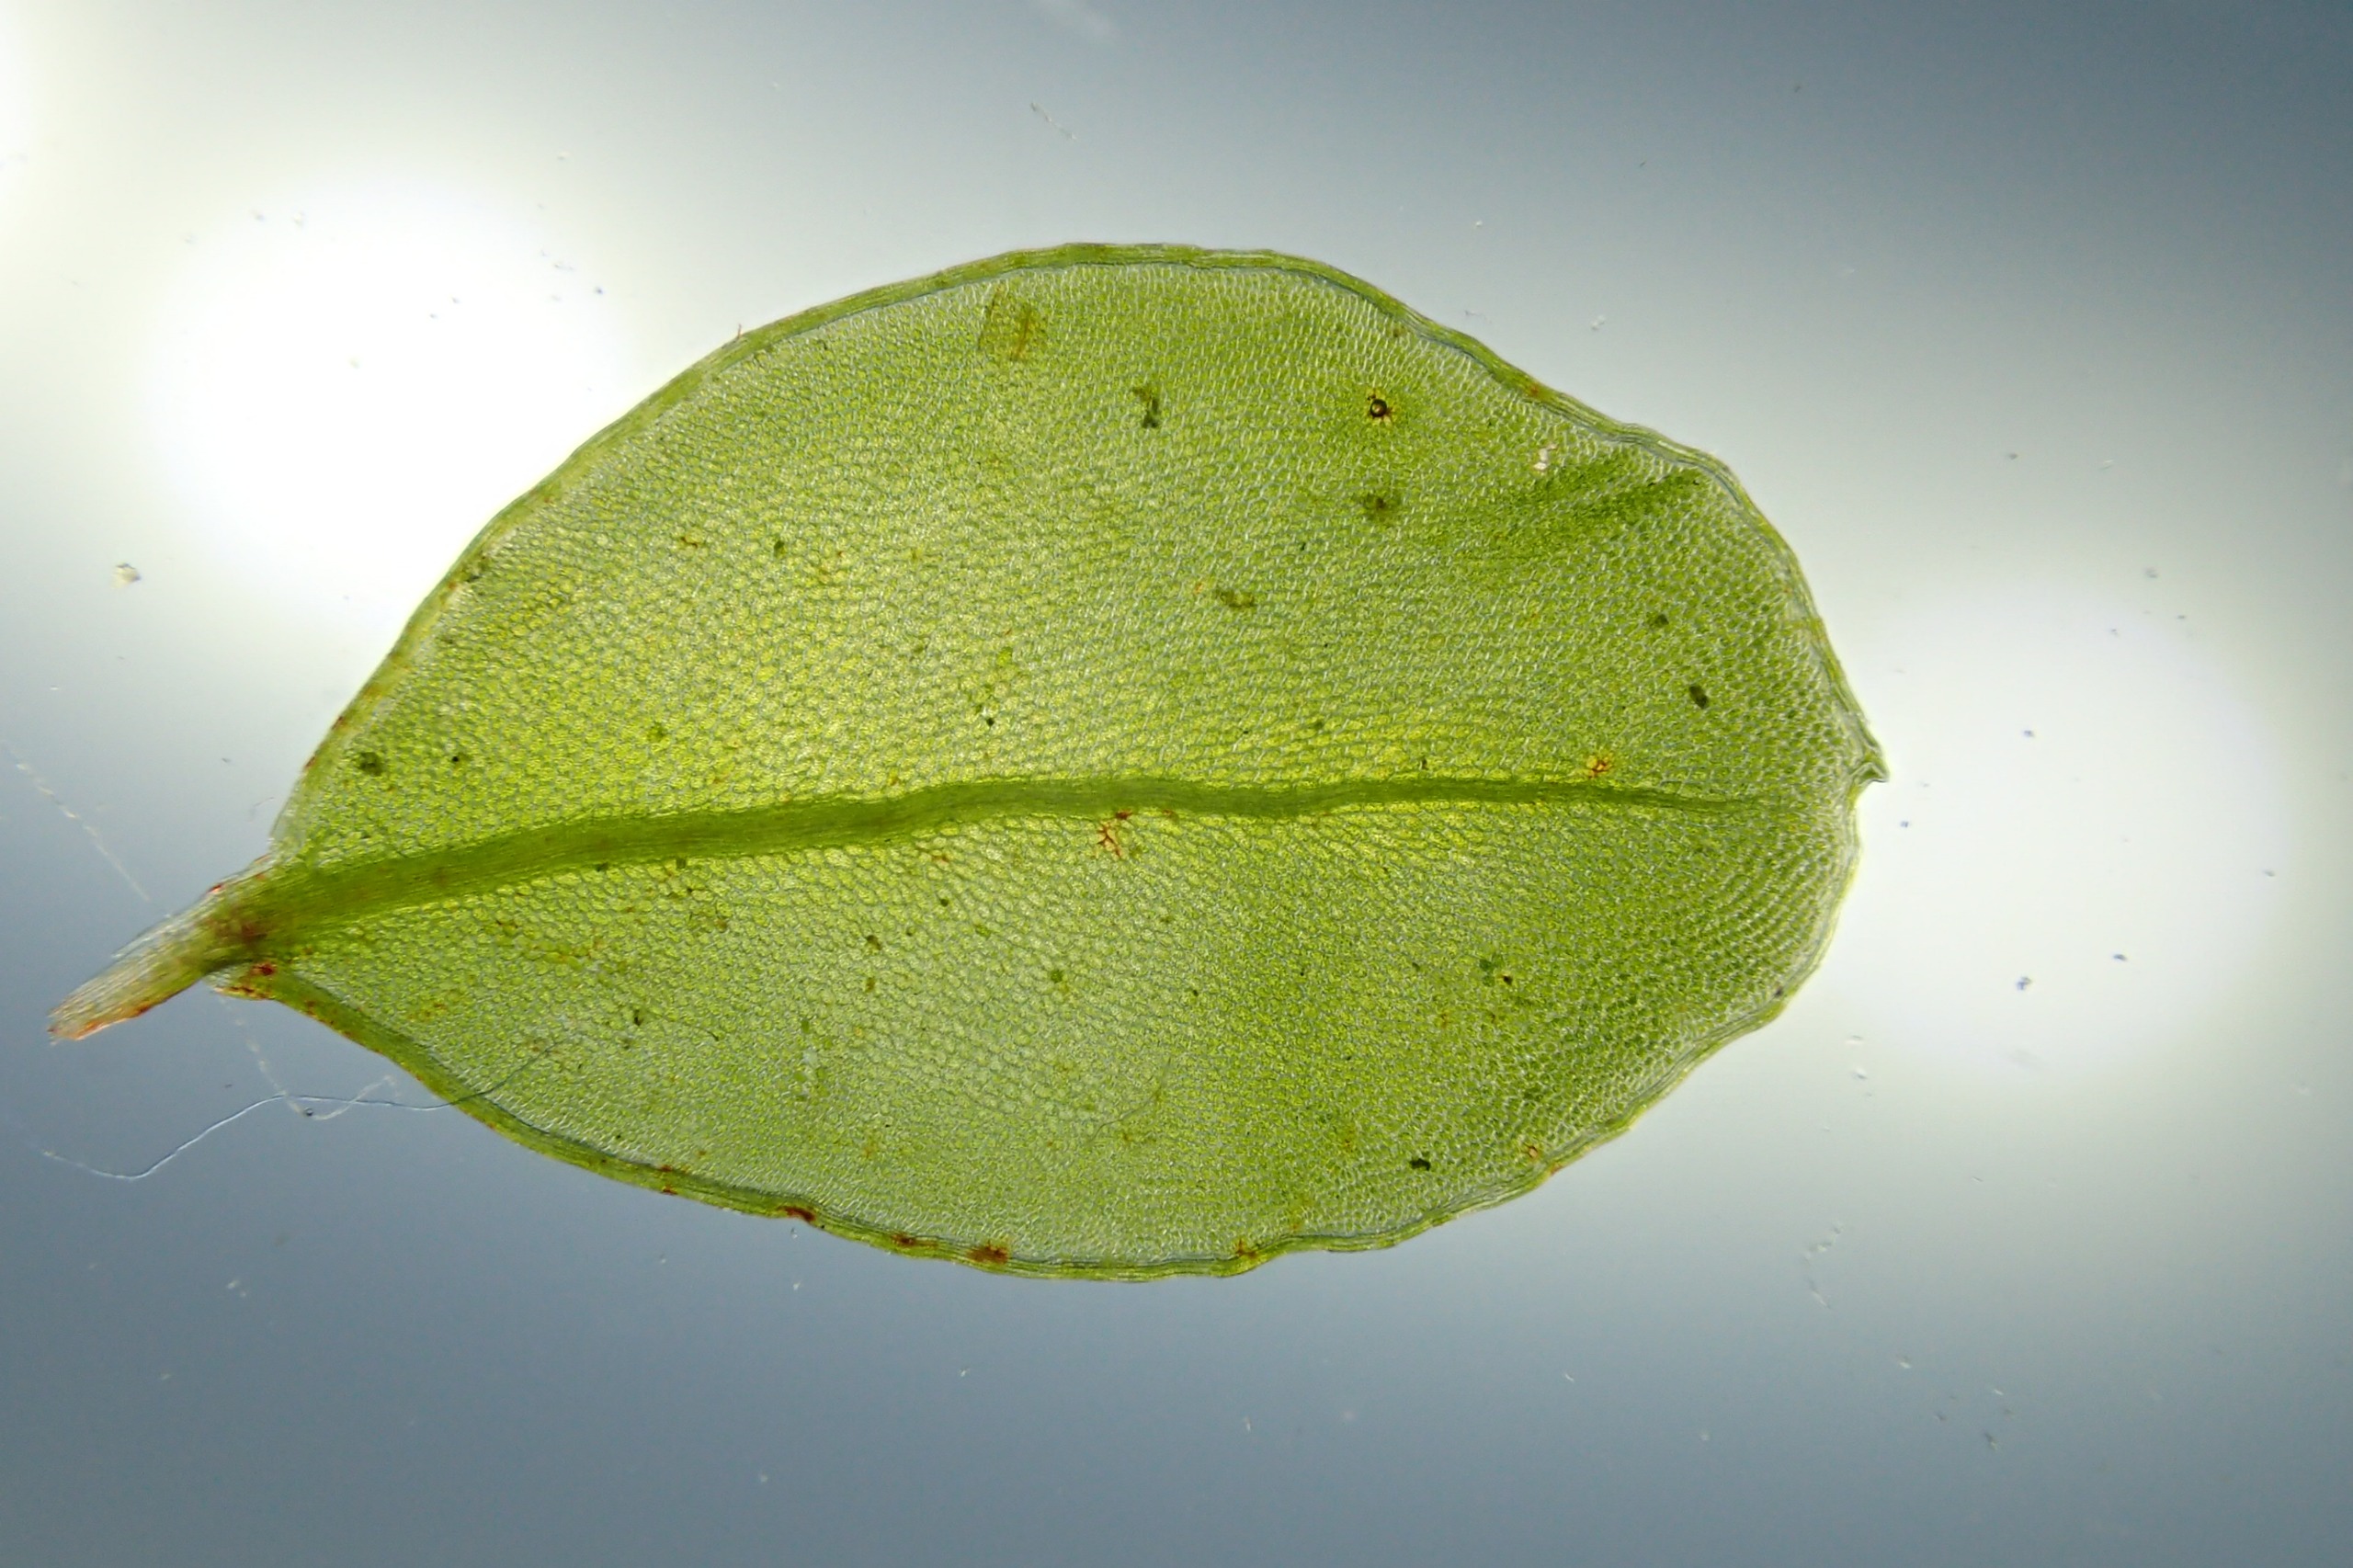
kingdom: Plantae
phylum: Bryophyta
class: Bryopsida
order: Bryales
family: Mniaceae
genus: Rhizomnium
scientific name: Rhizomnium punctatum
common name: Almindelig bredblad
